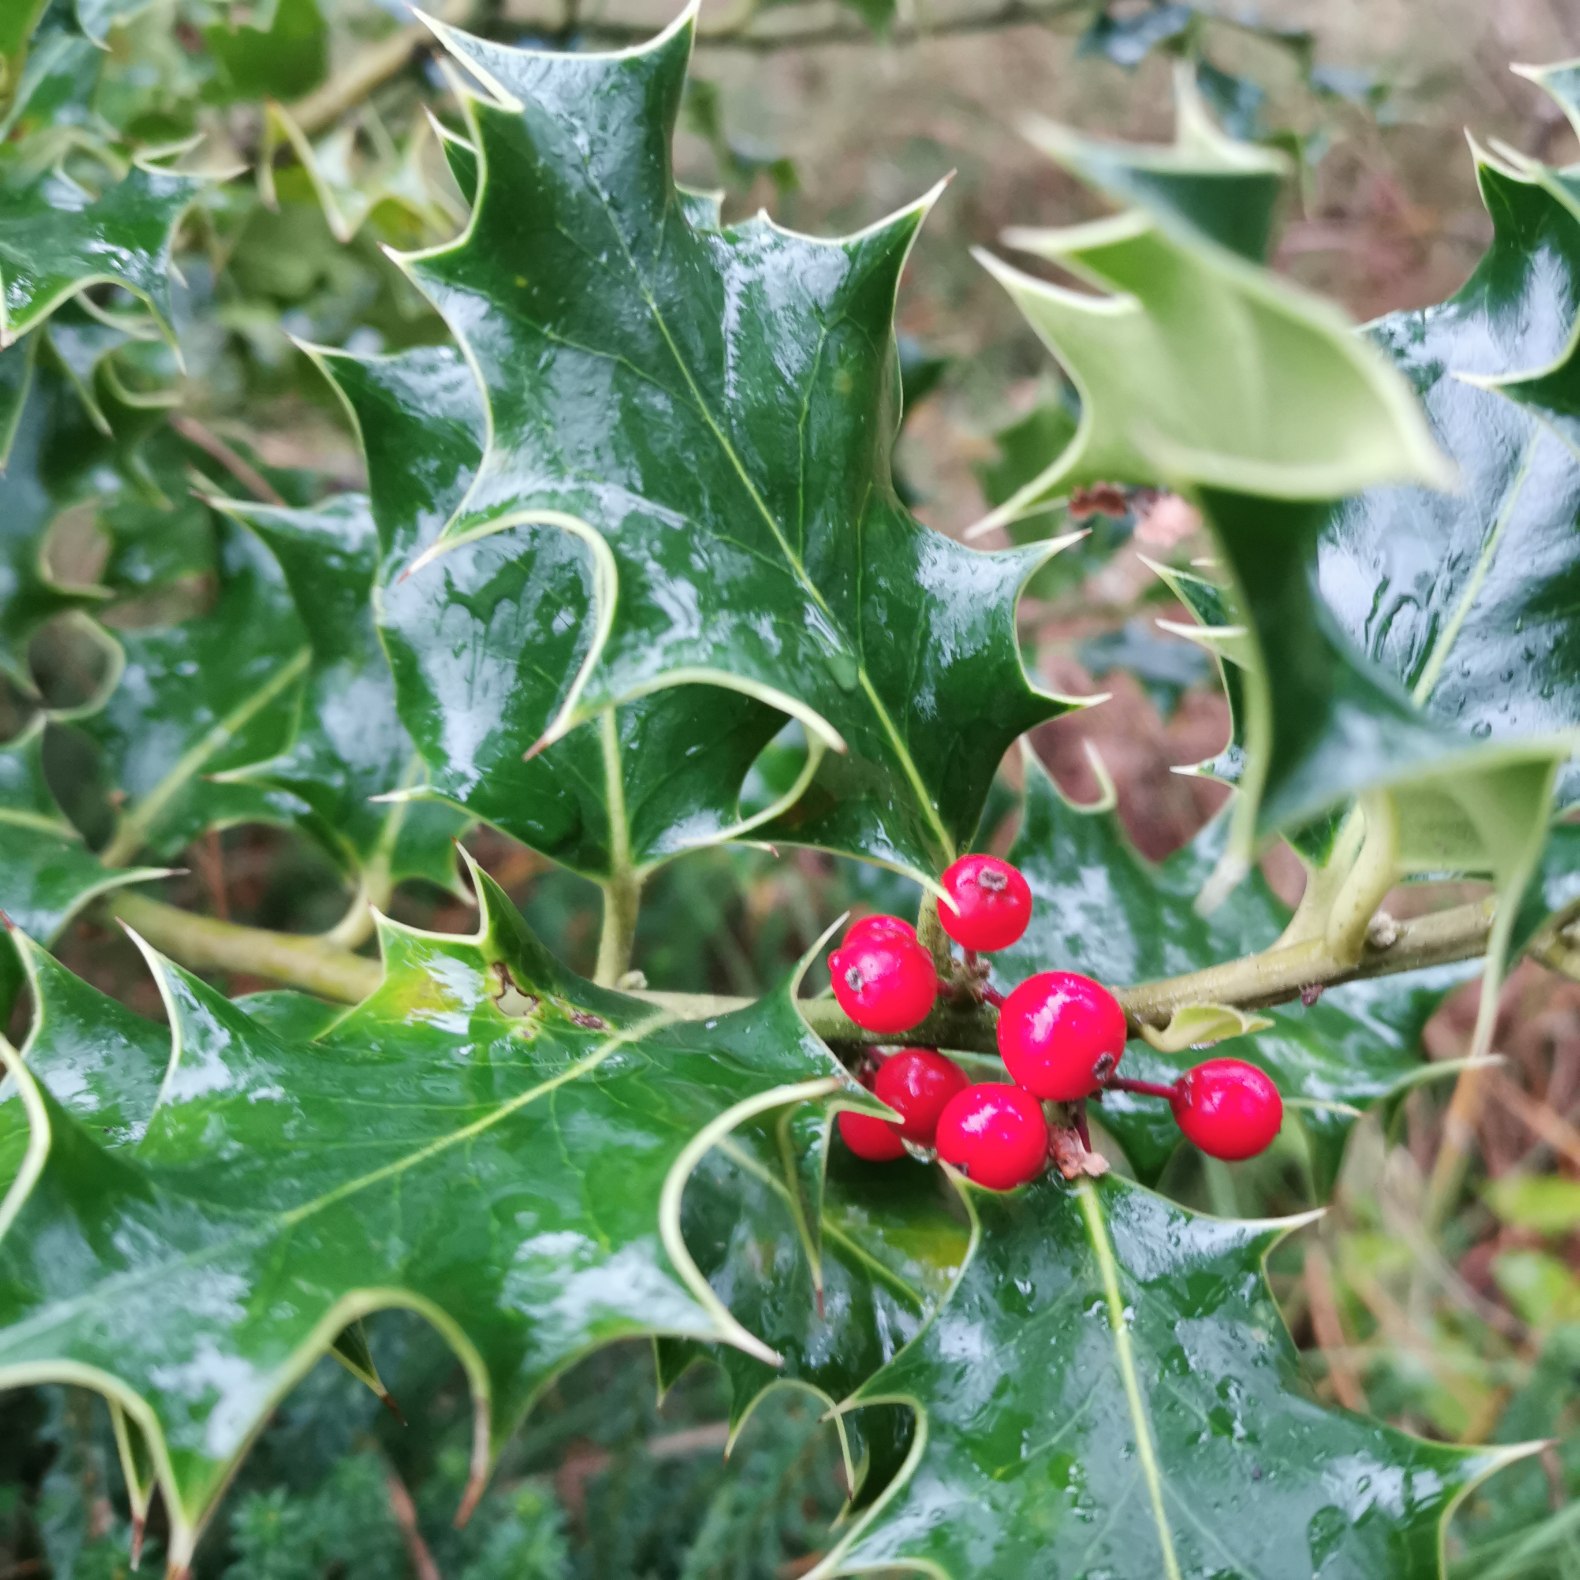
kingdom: Plantae
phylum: Tracheophyta
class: Magnoliopsida
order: Aquifoliales
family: Aquifoliaceae
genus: Ilex
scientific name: Ilex aquifolium
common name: Kristtorn
